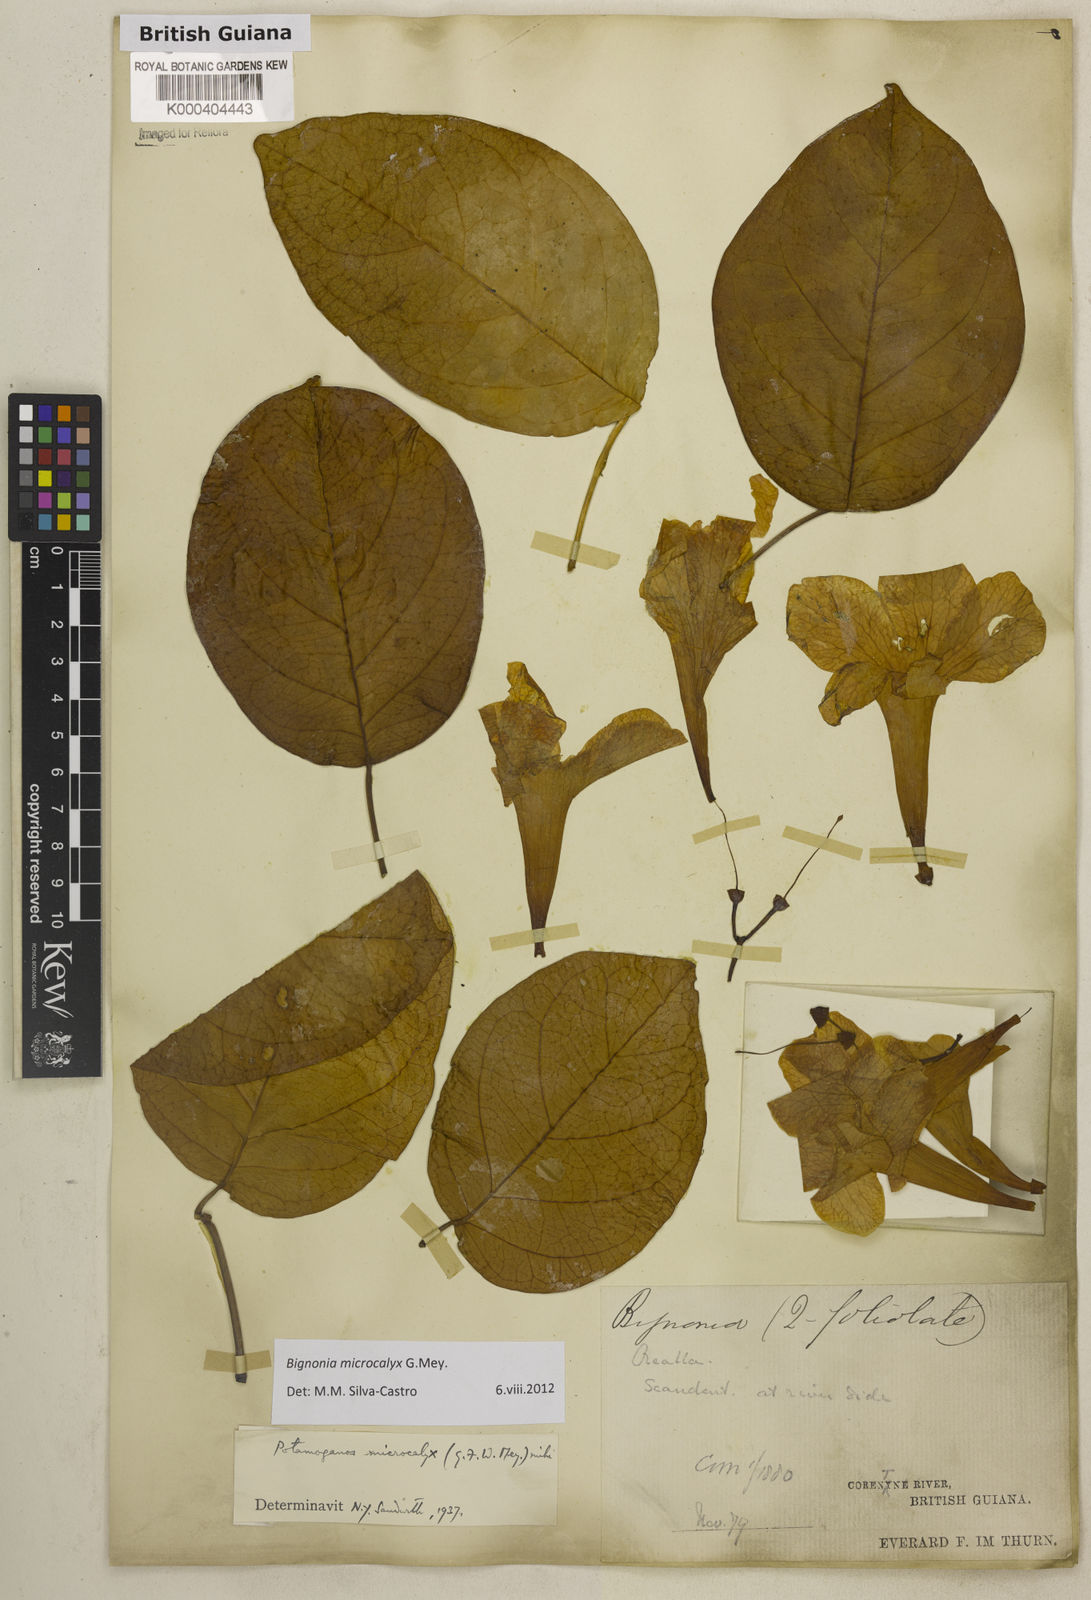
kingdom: Plantae
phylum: Tracheophyta
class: Magnoliopsida
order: Lamiales
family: Bignoniaceae
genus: Bignonia
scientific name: Bignonia microcalyx
